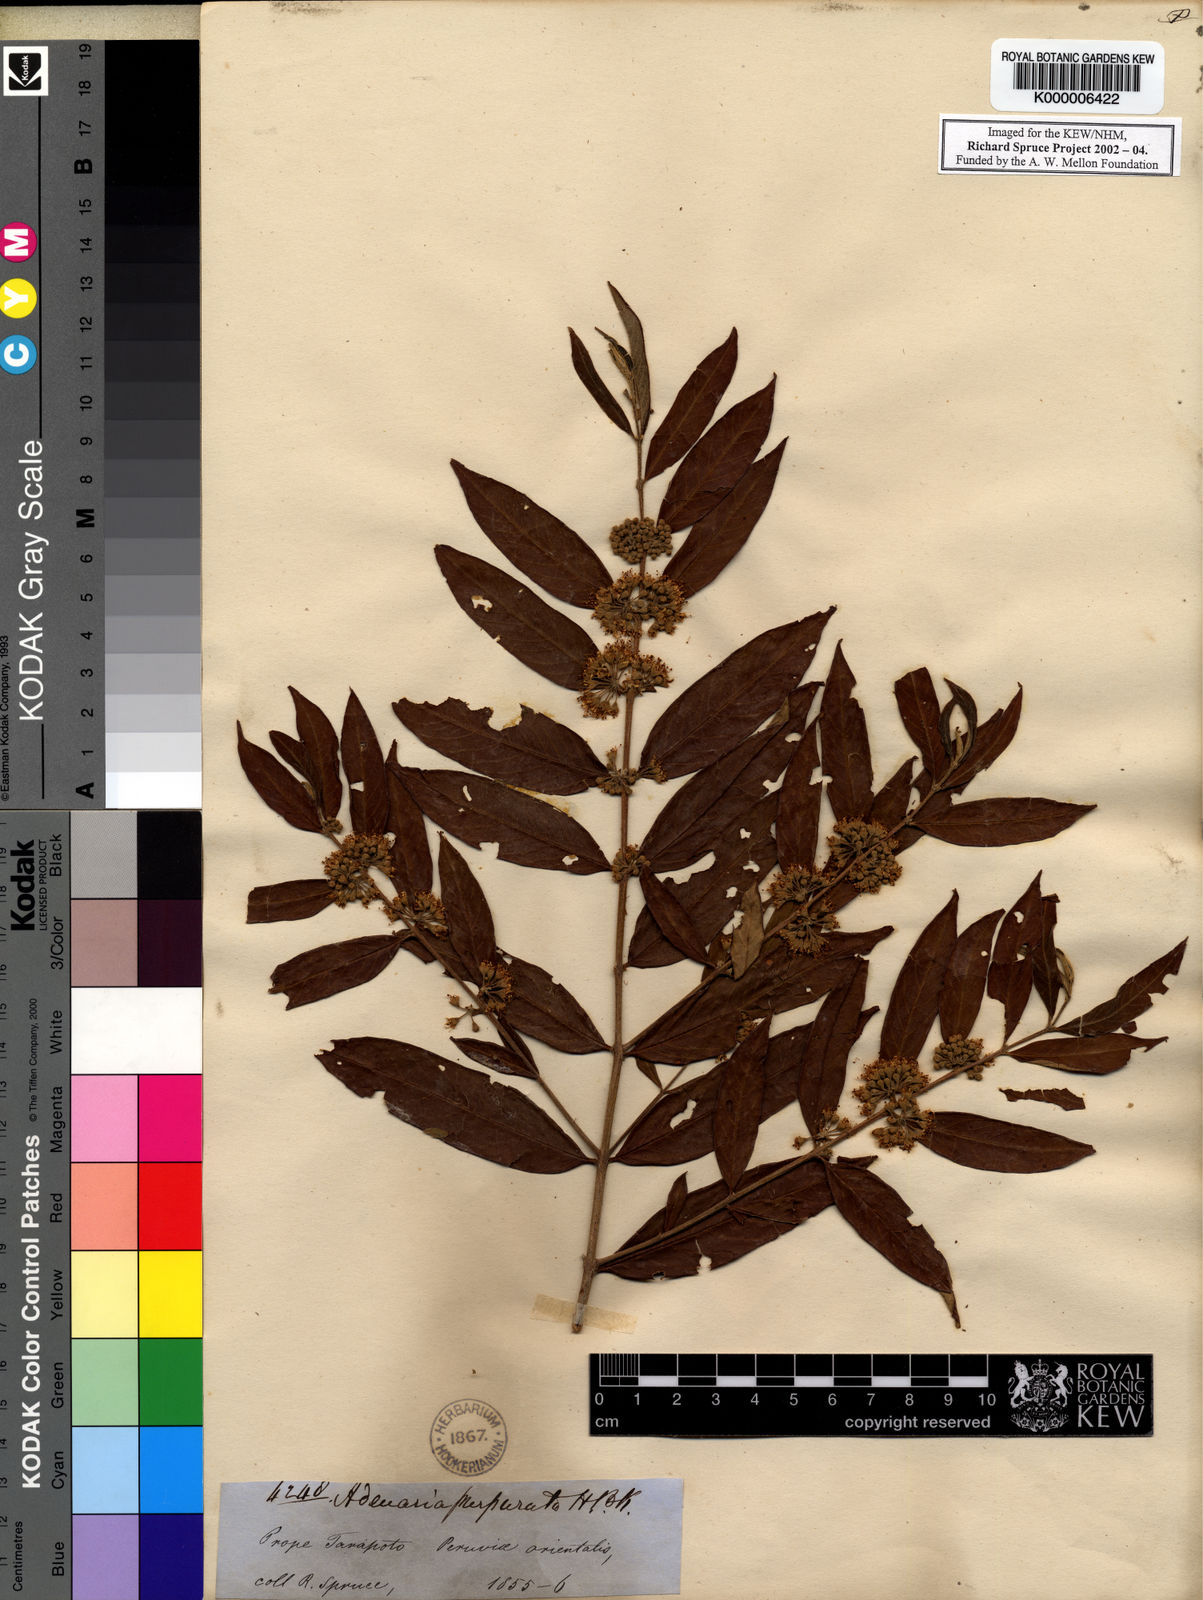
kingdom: Plantae
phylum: Tracheophyta
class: Magnoliopsida
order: Myrtales
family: Lythraceae
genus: Adenaria
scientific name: Adenaria floribunda
